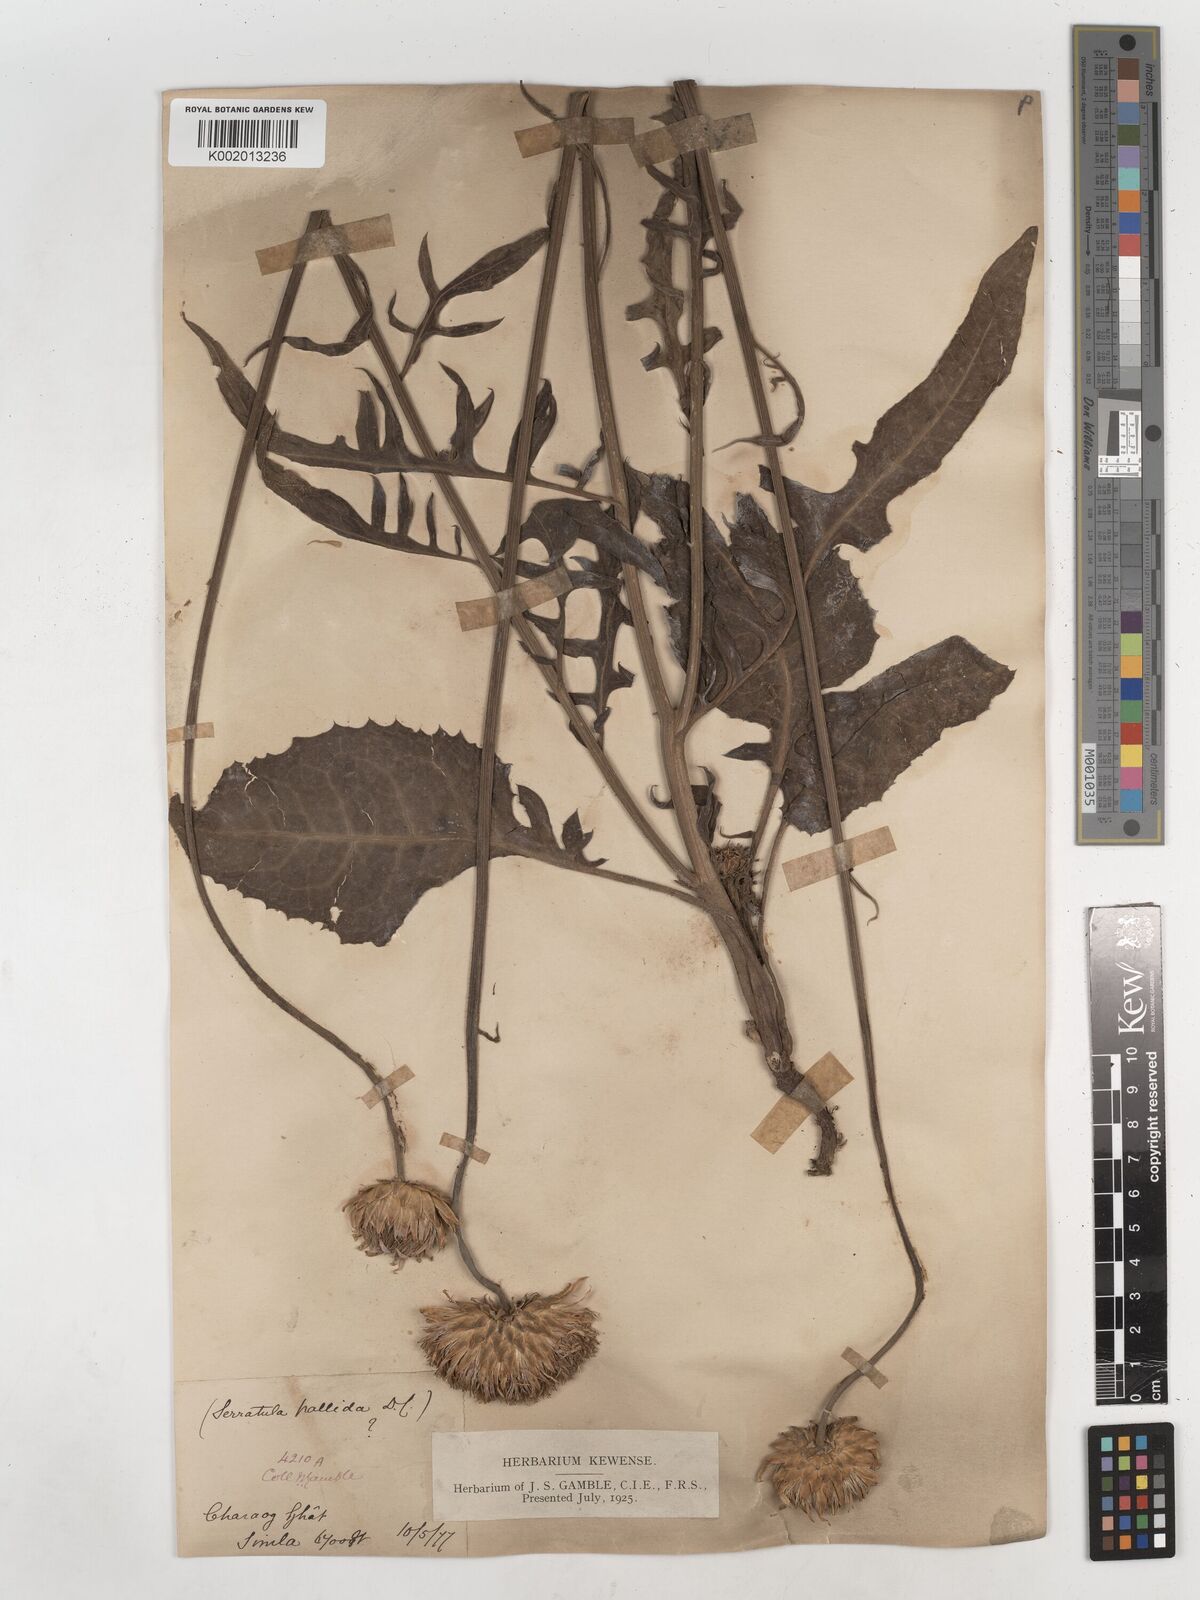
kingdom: Plantae
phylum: Tracheophyta
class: Magnoliopsida
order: Asterales
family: Asteraceae
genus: Klasea
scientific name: Klasea pallida
